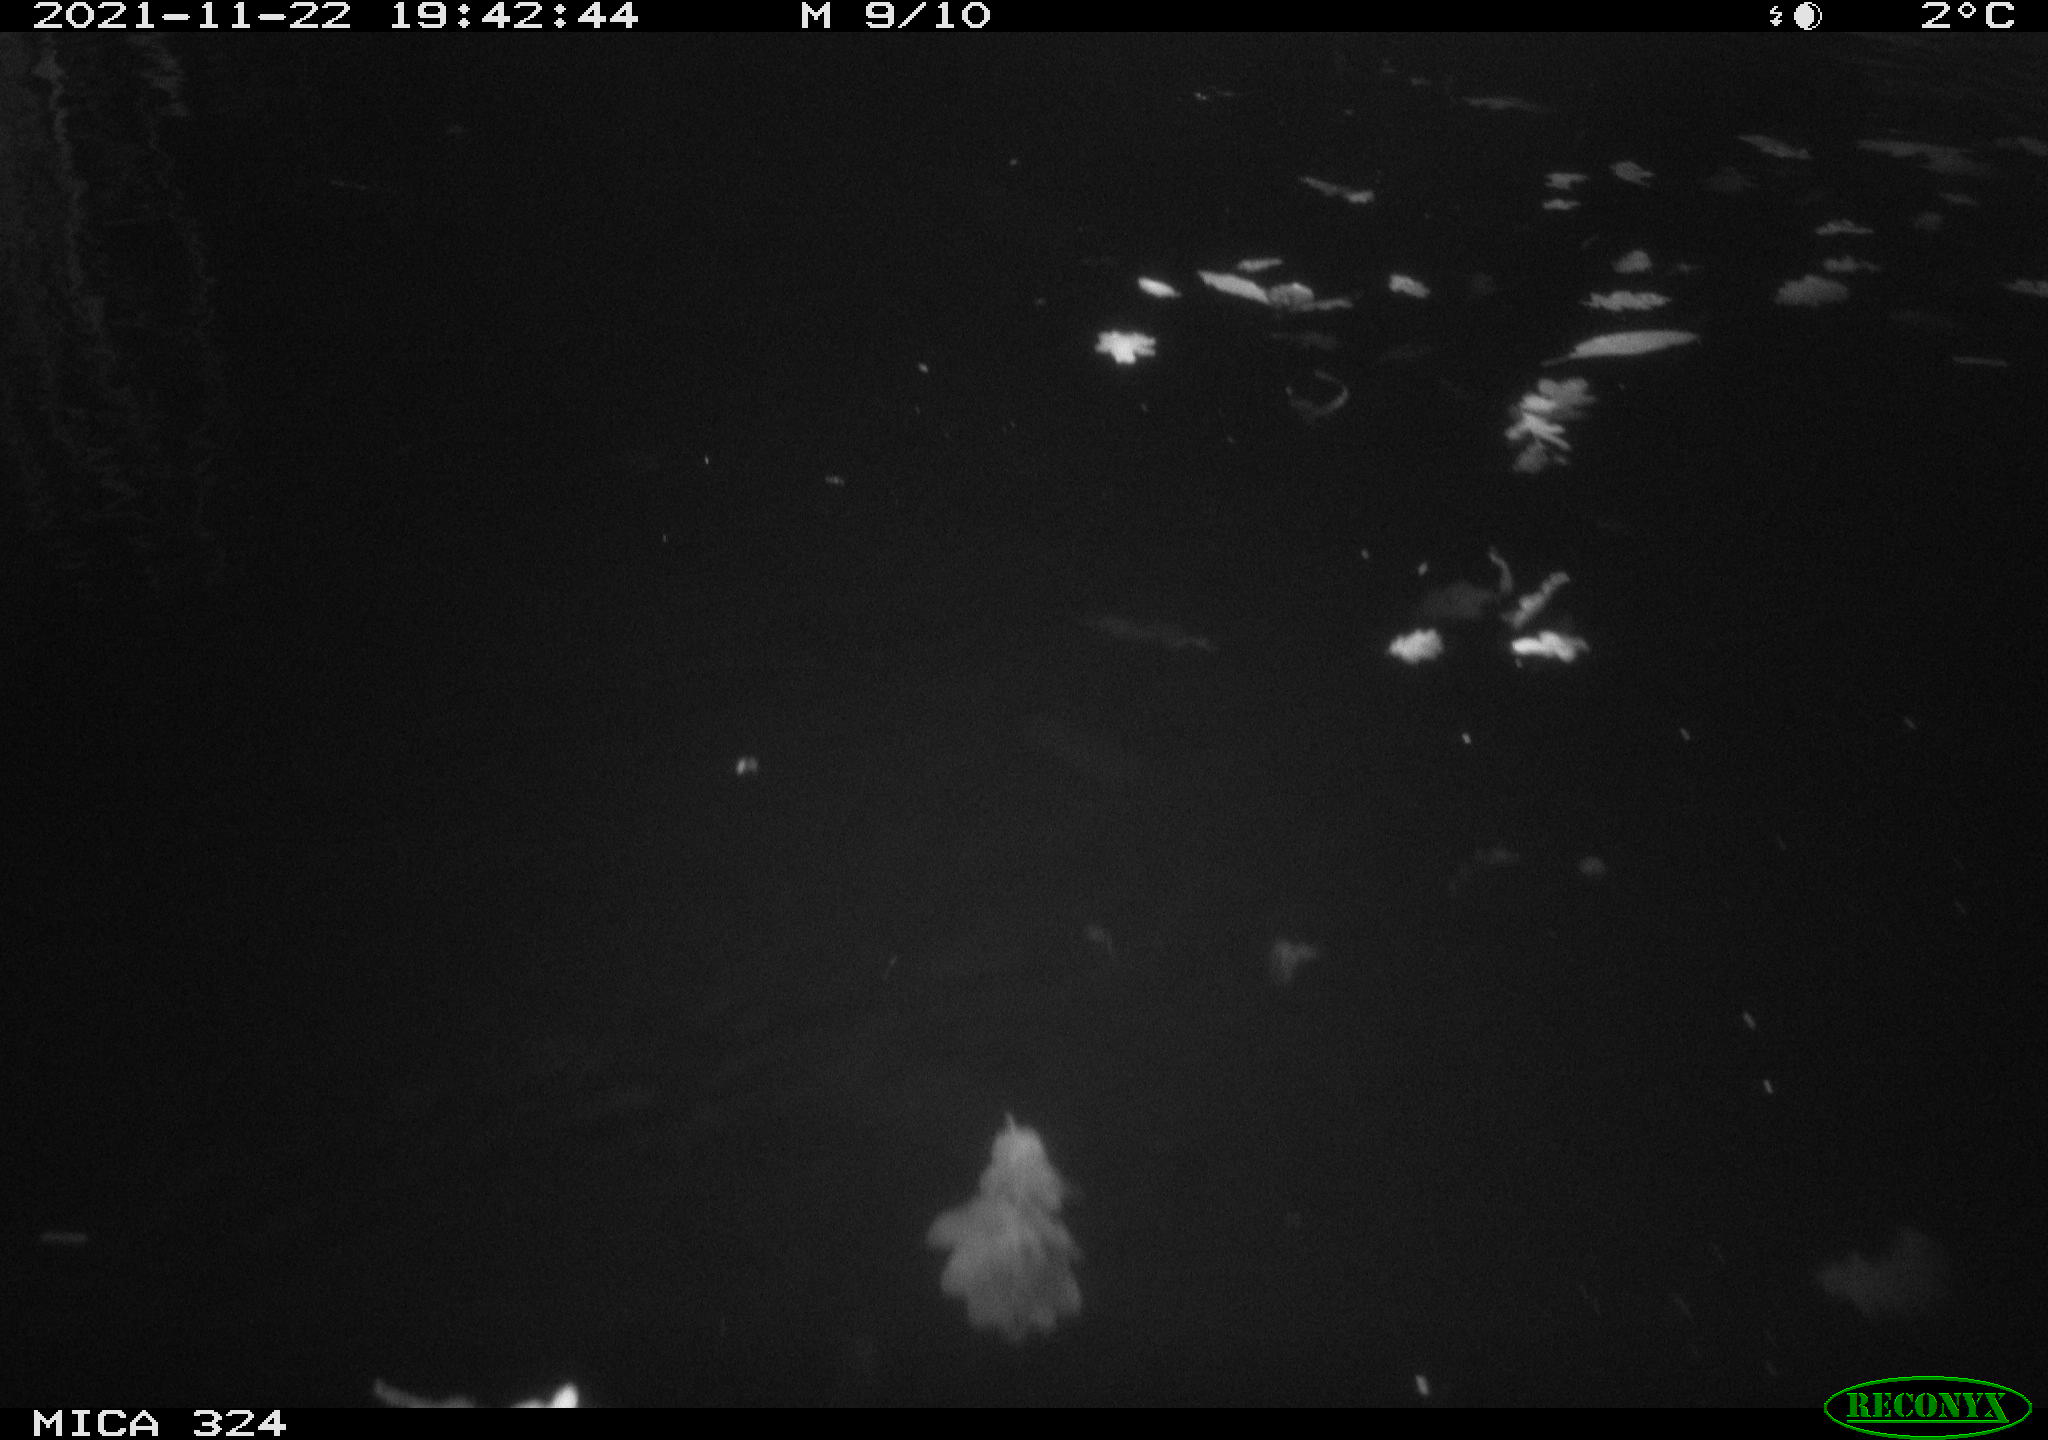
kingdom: Animalia
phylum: Chordata
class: Mammalia
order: Rodentia
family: Cricetidae
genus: Ondatra
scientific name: Ondatra zibethicus
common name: Muskrat
